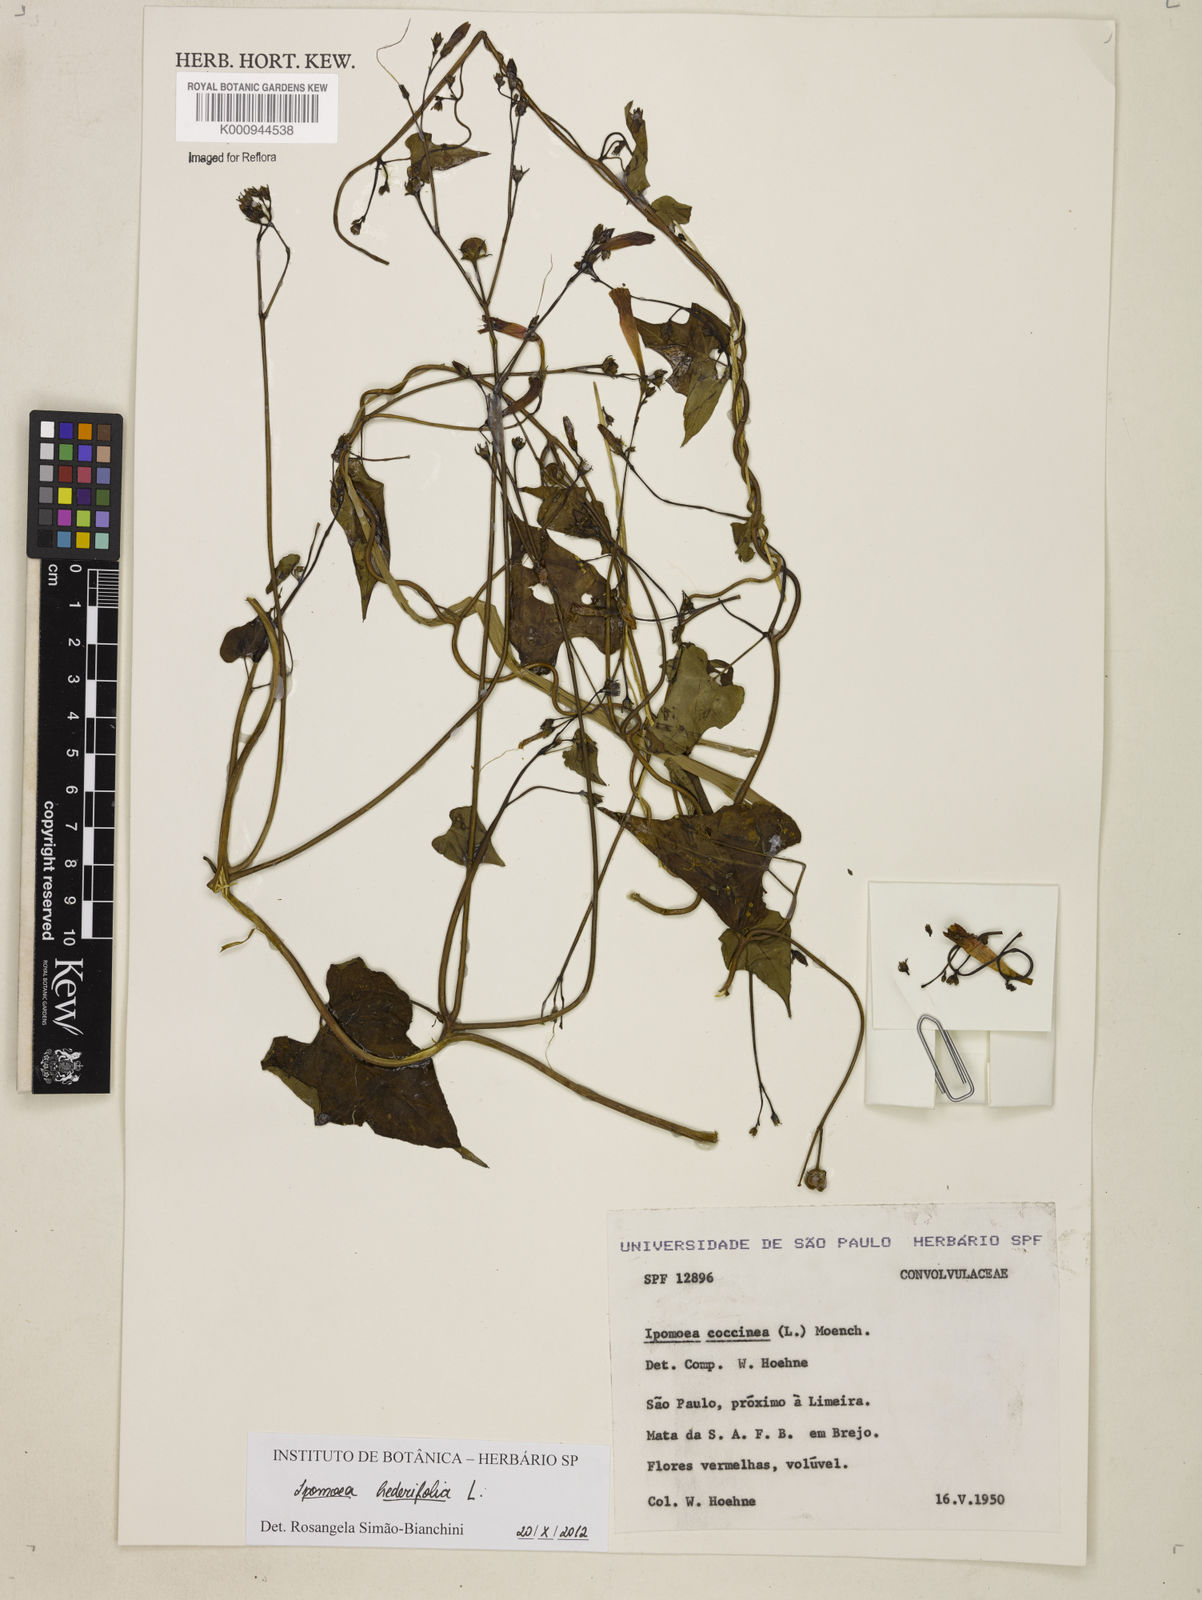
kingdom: Plantae
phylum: Tracheophyta
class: Magnoliopsida
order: Solanales
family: Convolvulaceae
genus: Ipomoea
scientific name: Ipomoea hederifolia
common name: Ivy-leaf morning-glory
